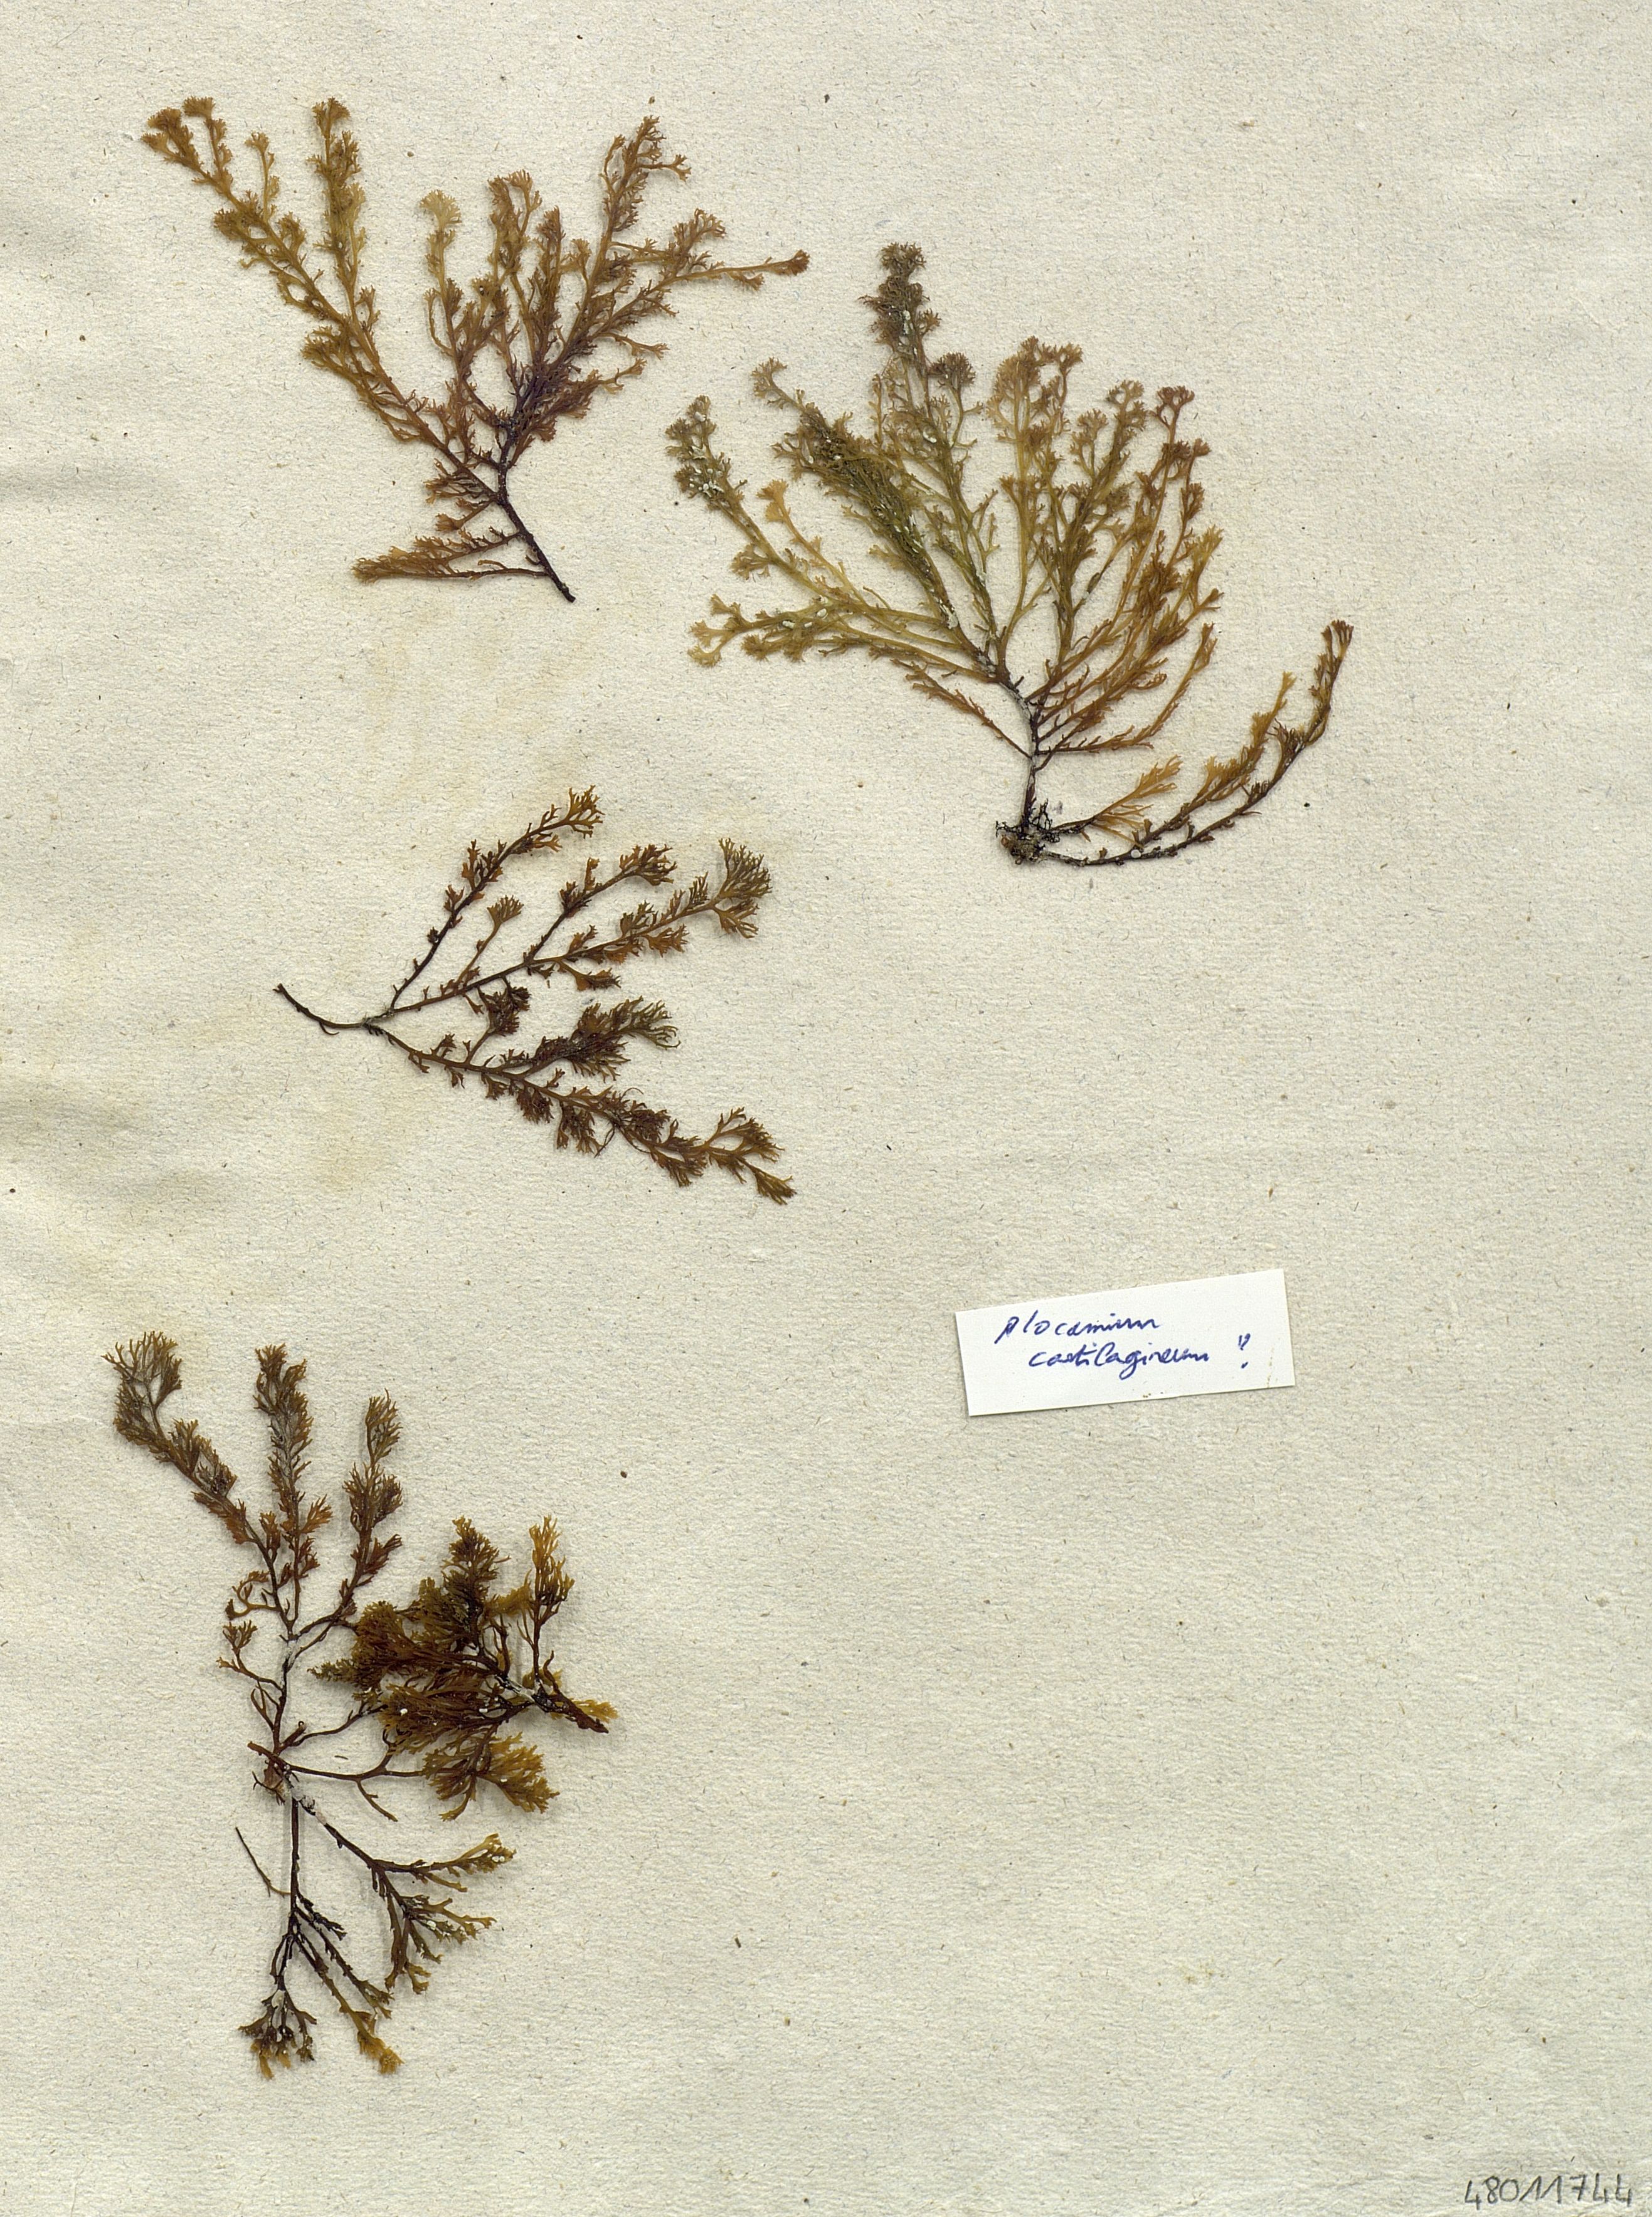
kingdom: Plantae
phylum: Rhodophyta
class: Florideophyceae
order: Plocamiales
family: Plocamiaceae
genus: Plocamium
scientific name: Plocamium cartilagineum
